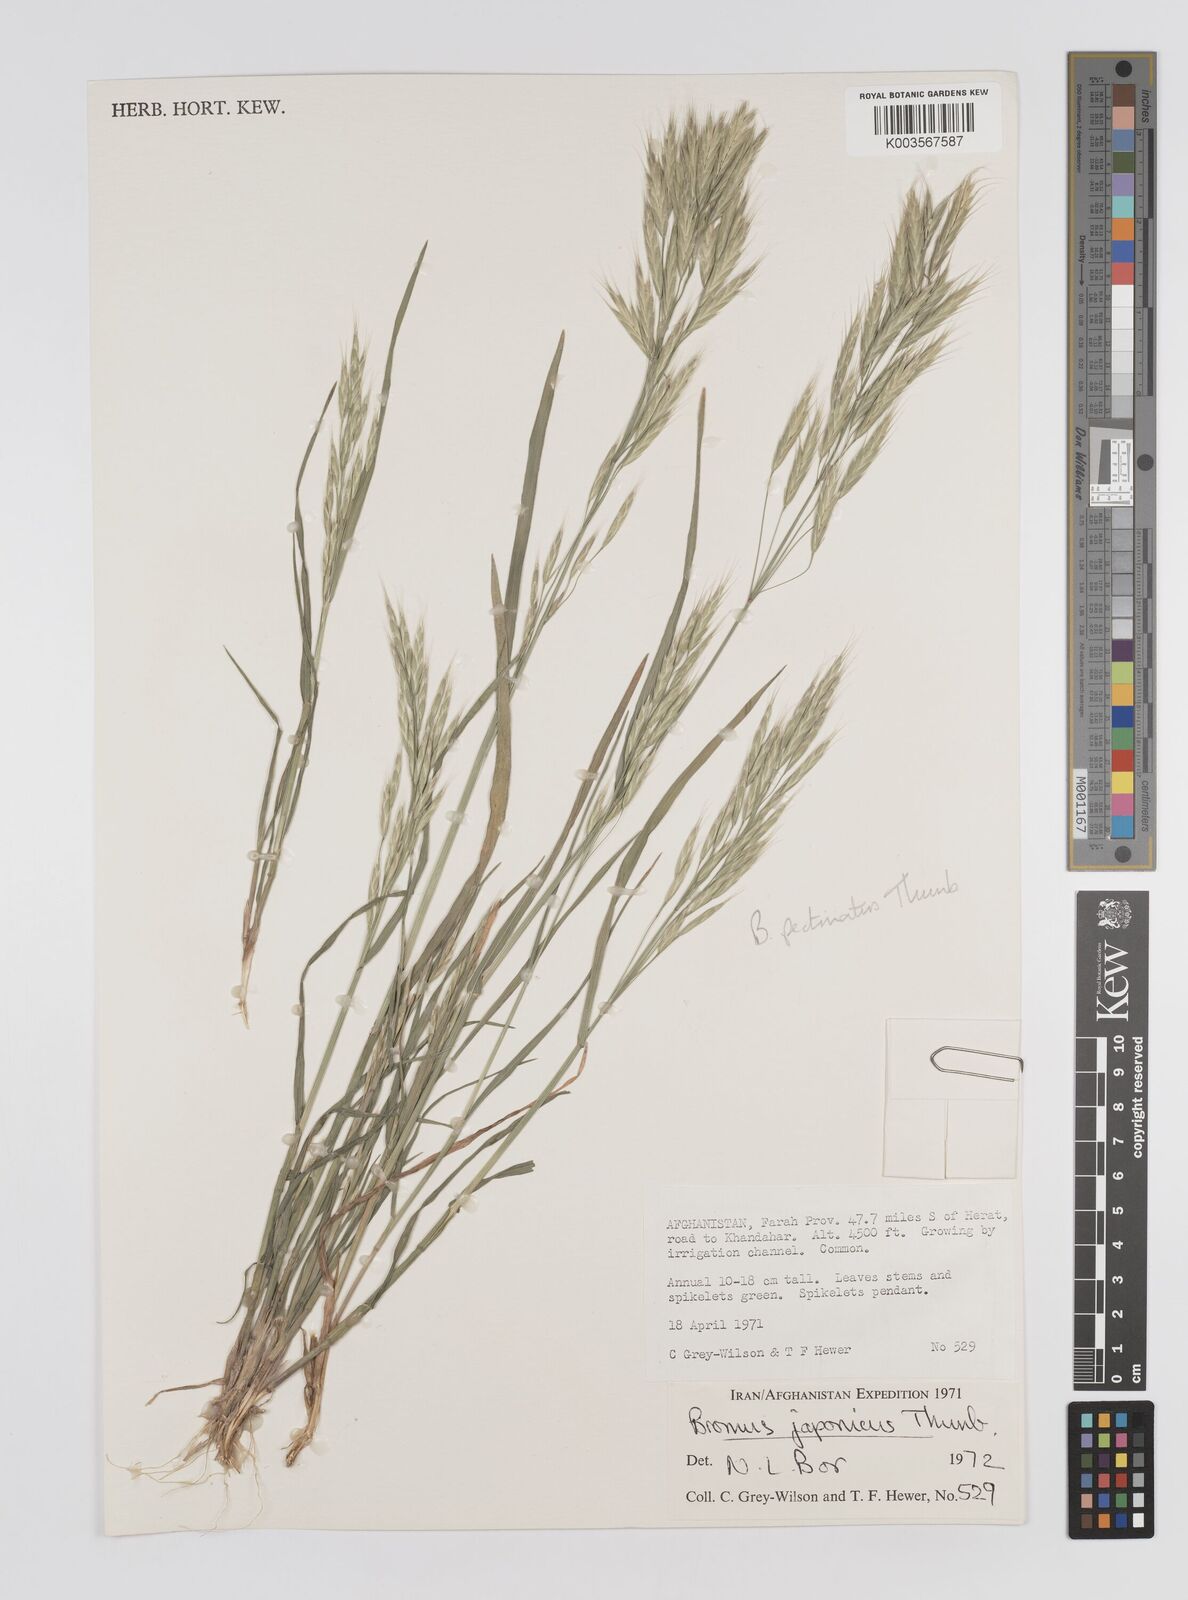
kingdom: Plantae
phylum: Tracheophyta
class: Liliopsida
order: Poales
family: Poaceae
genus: Bromus
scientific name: Bromus pectinatus
